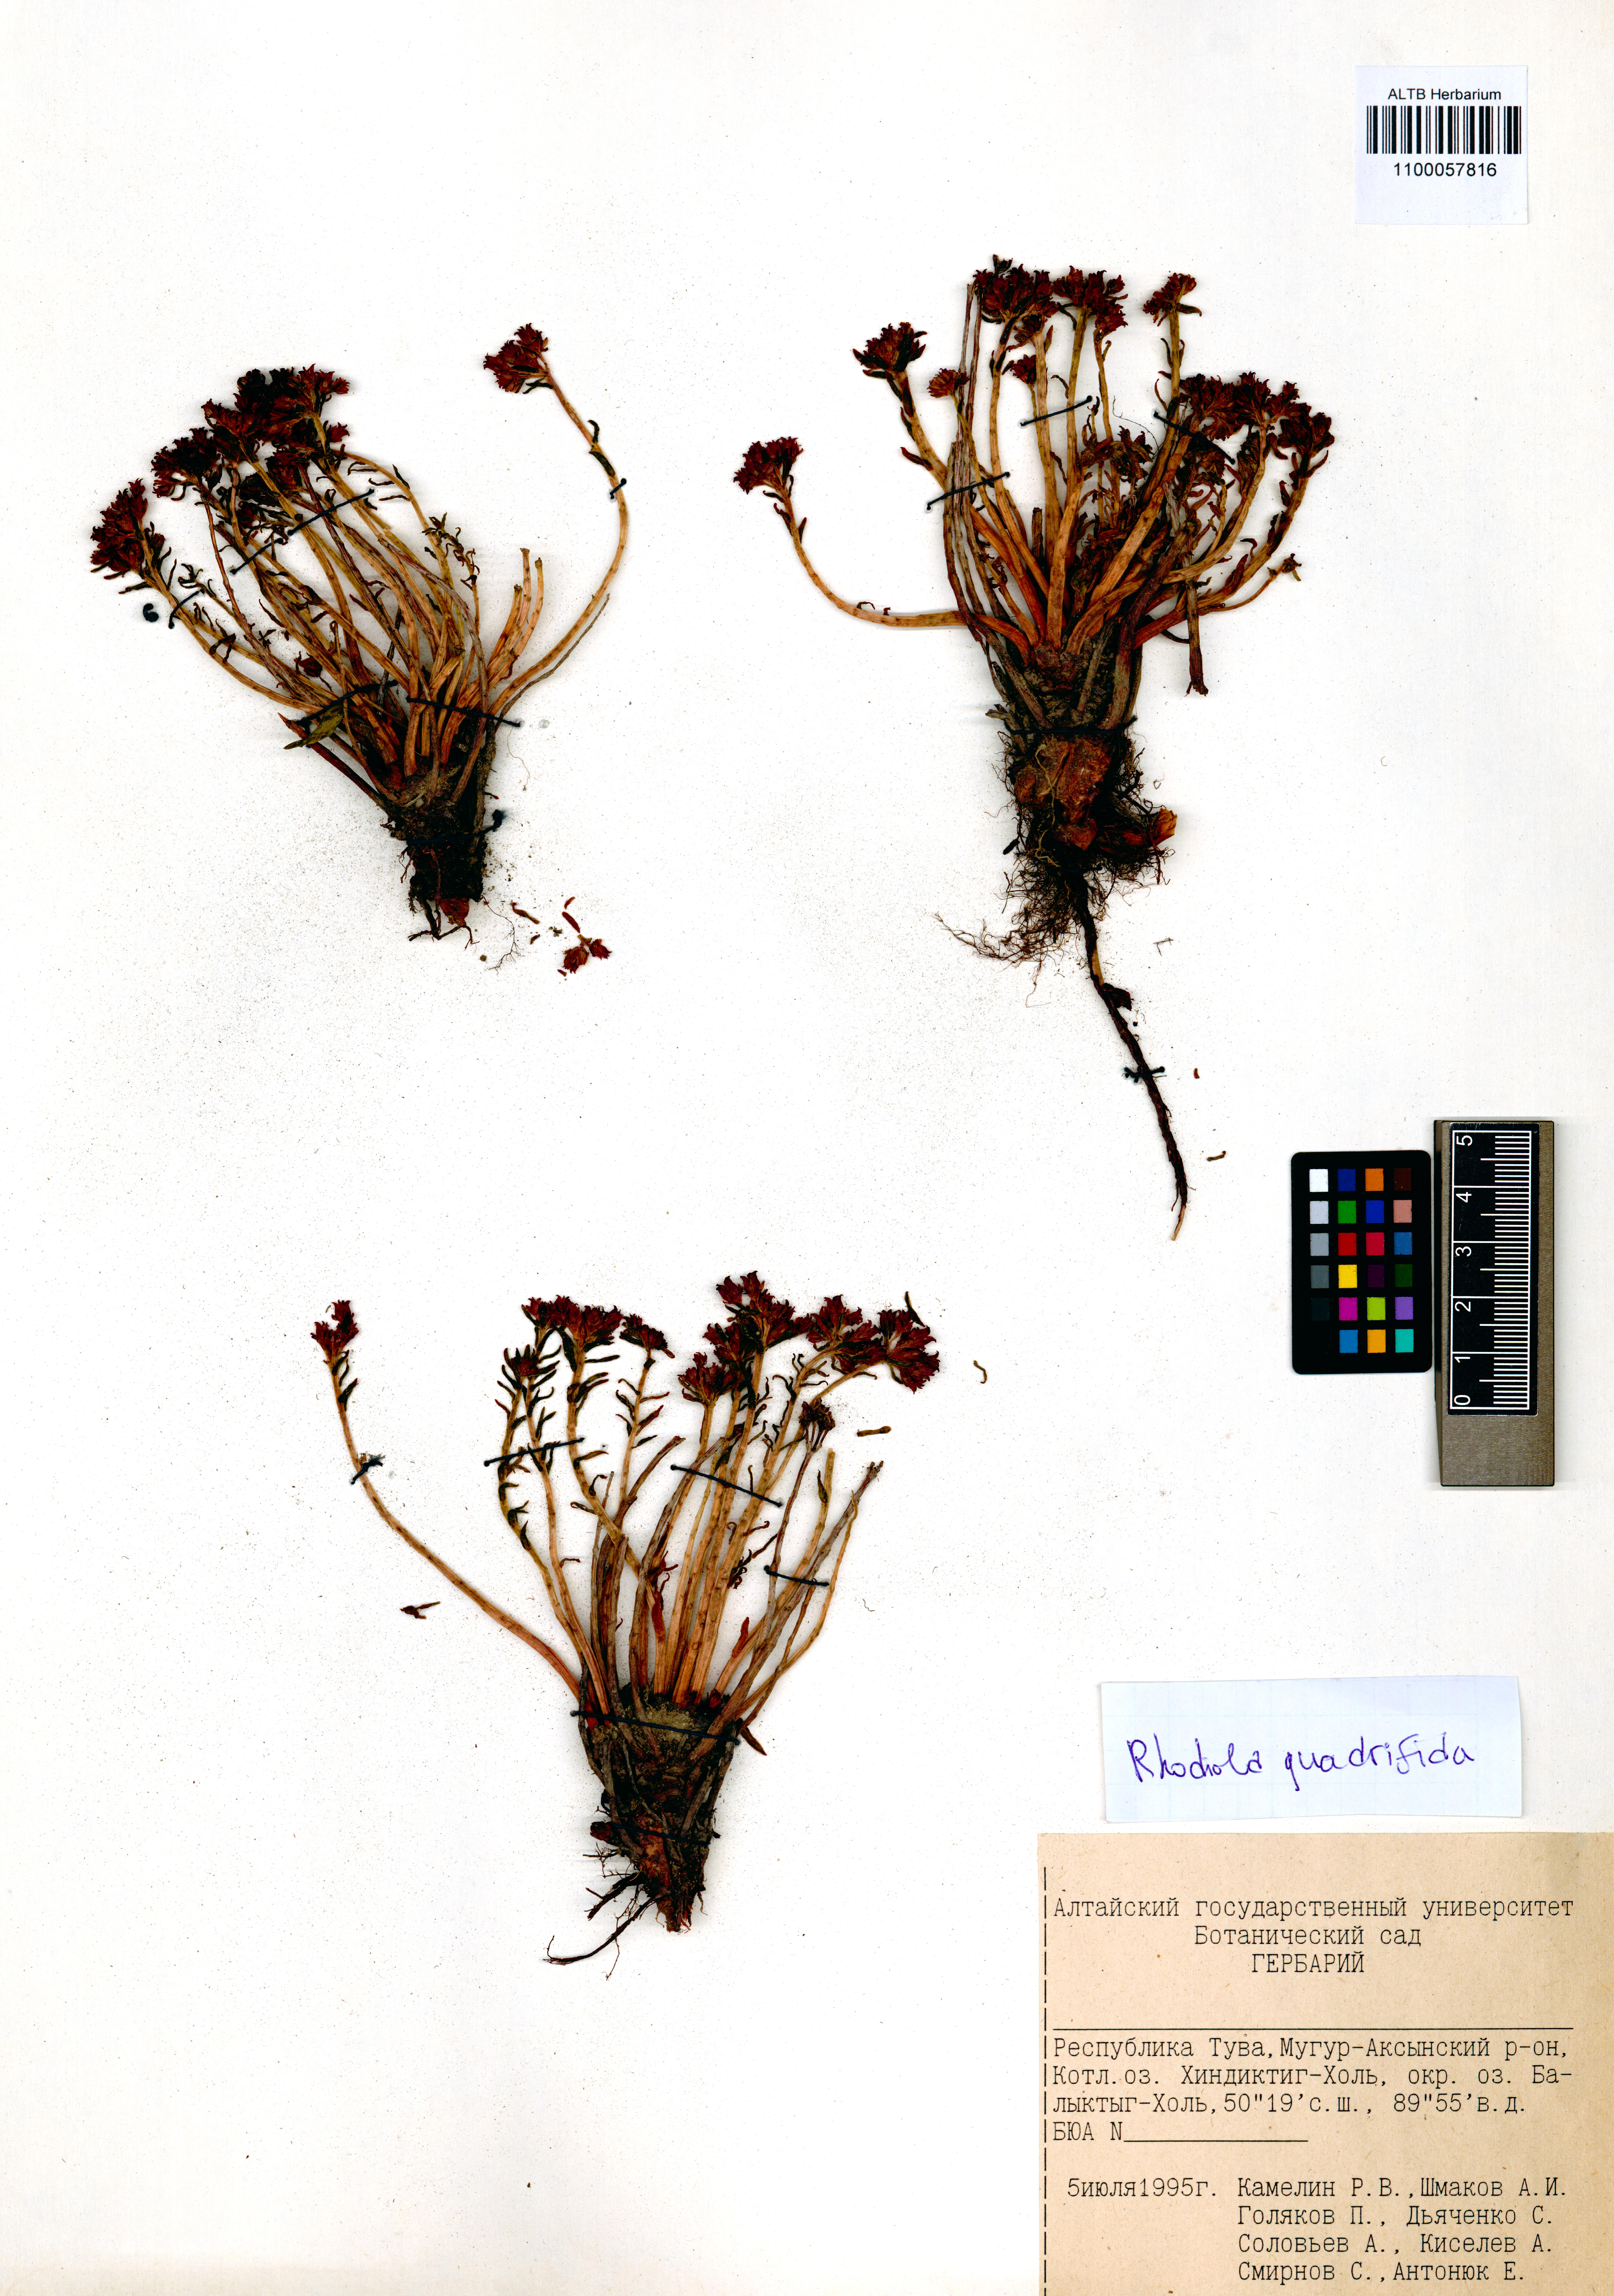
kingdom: Plantae
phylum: Tracheophyta
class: Magnoliopsida
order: Saxifragales
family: Crassulaceae
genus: Rhodiola
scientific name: Rhodiola quadrifida
